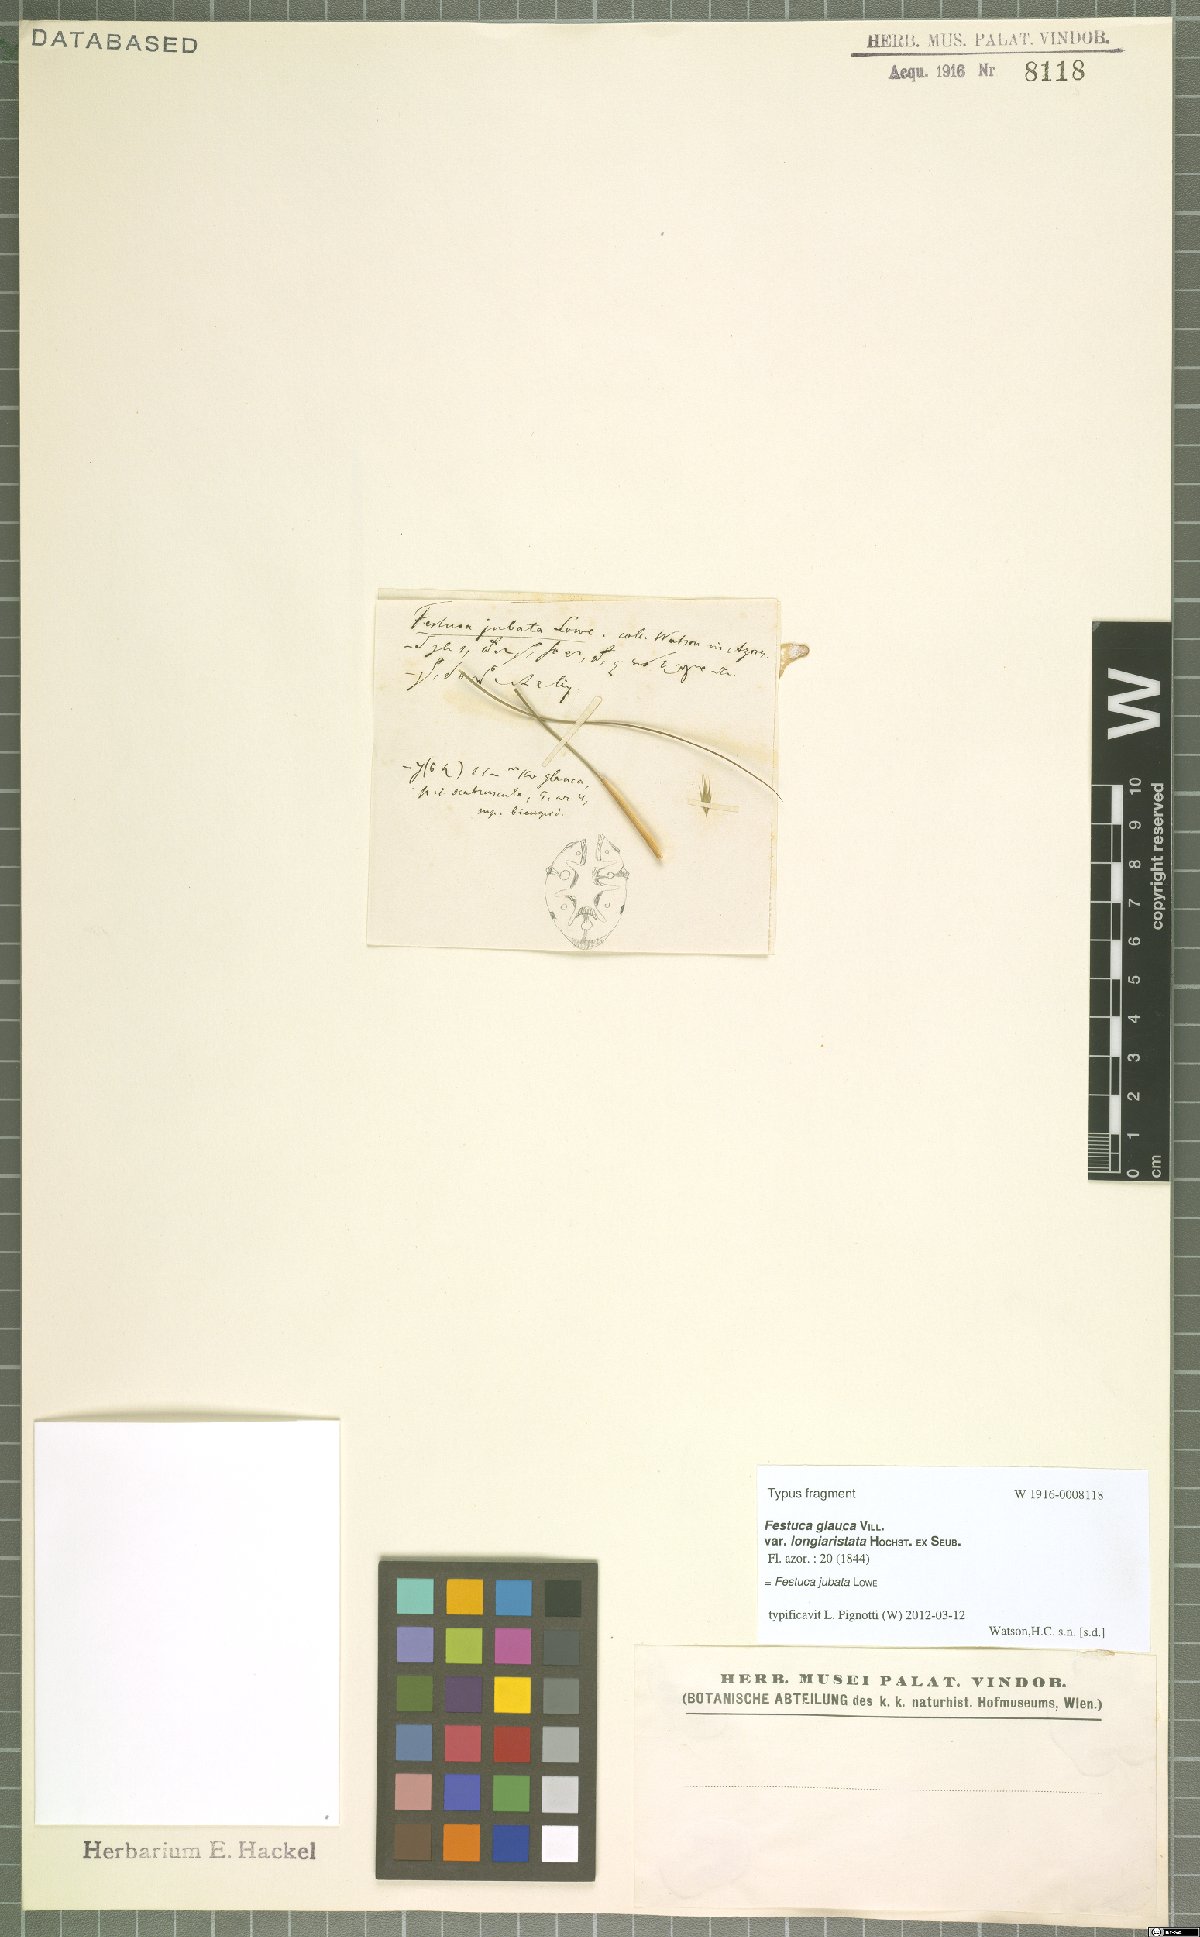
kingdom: Plantae
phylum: Tracheophyta
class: Liliopsida
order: Poales
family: Poaceae
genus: Festuca
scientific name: Festuca jubata
